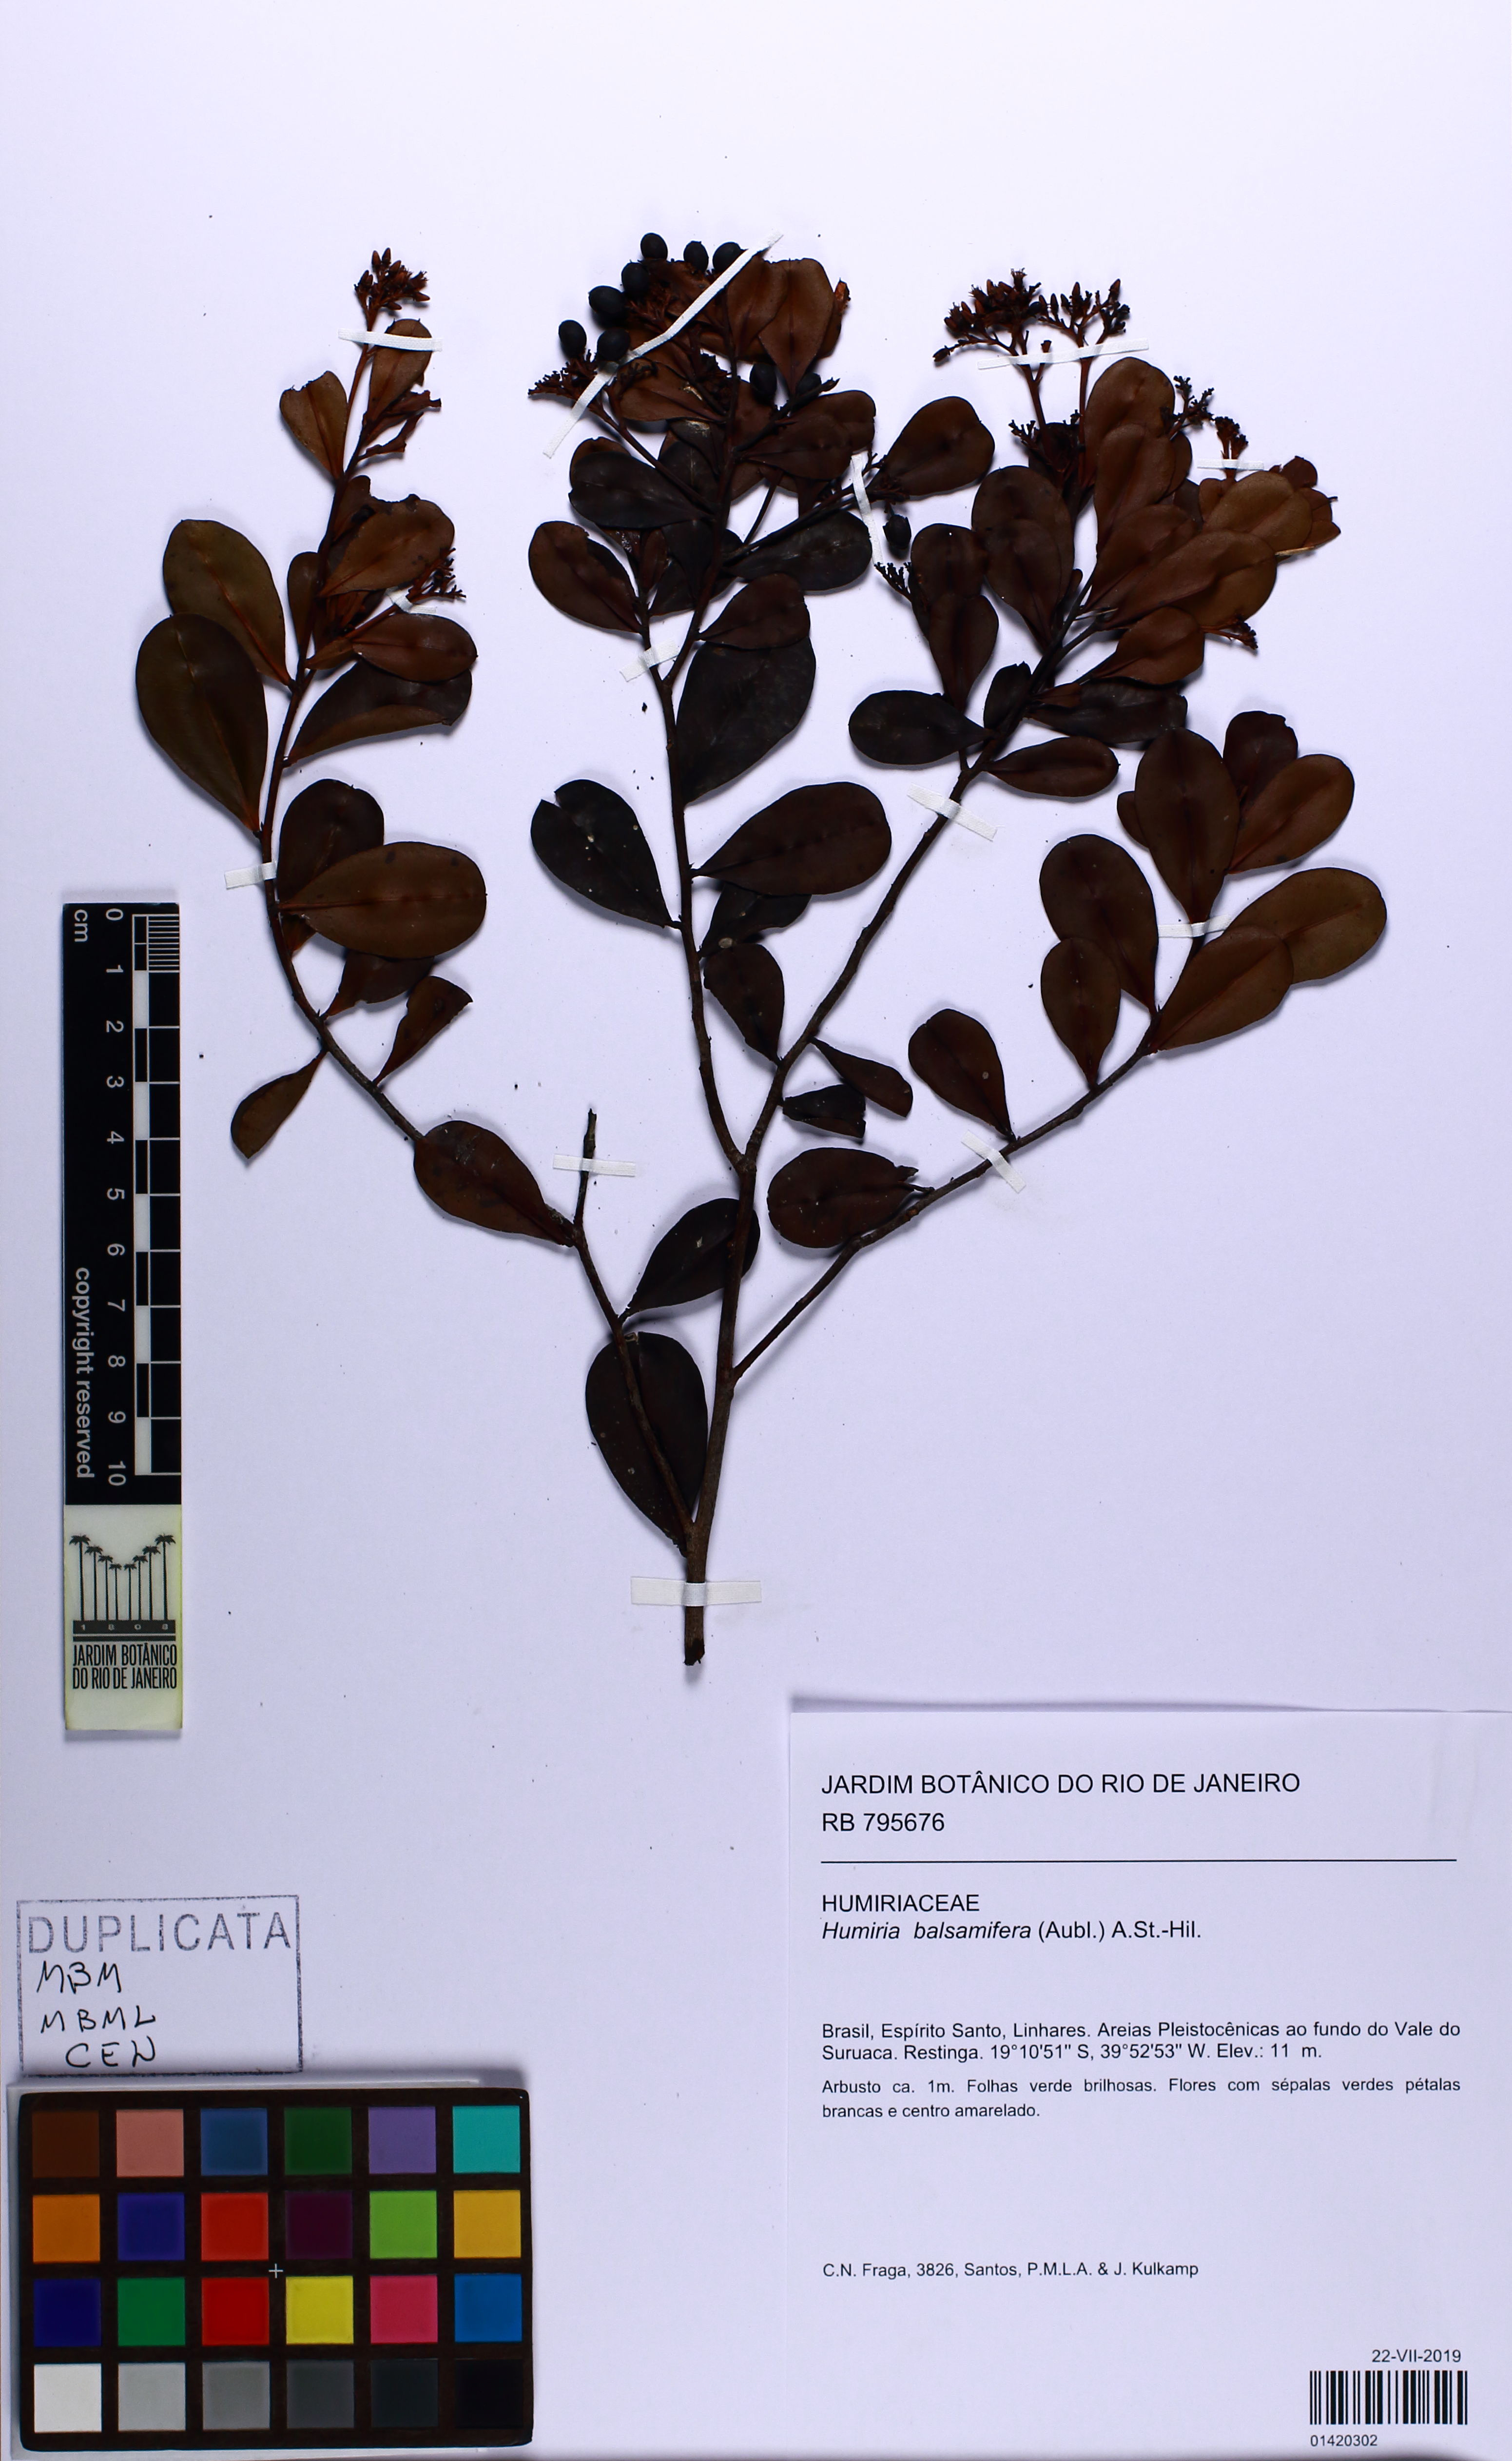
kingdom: Plantae
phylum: Tracheophyta
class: Magnoliopsida
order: Malpighiales
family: Humiriaceae
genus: Humiria
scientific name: Humiria balsamifera
